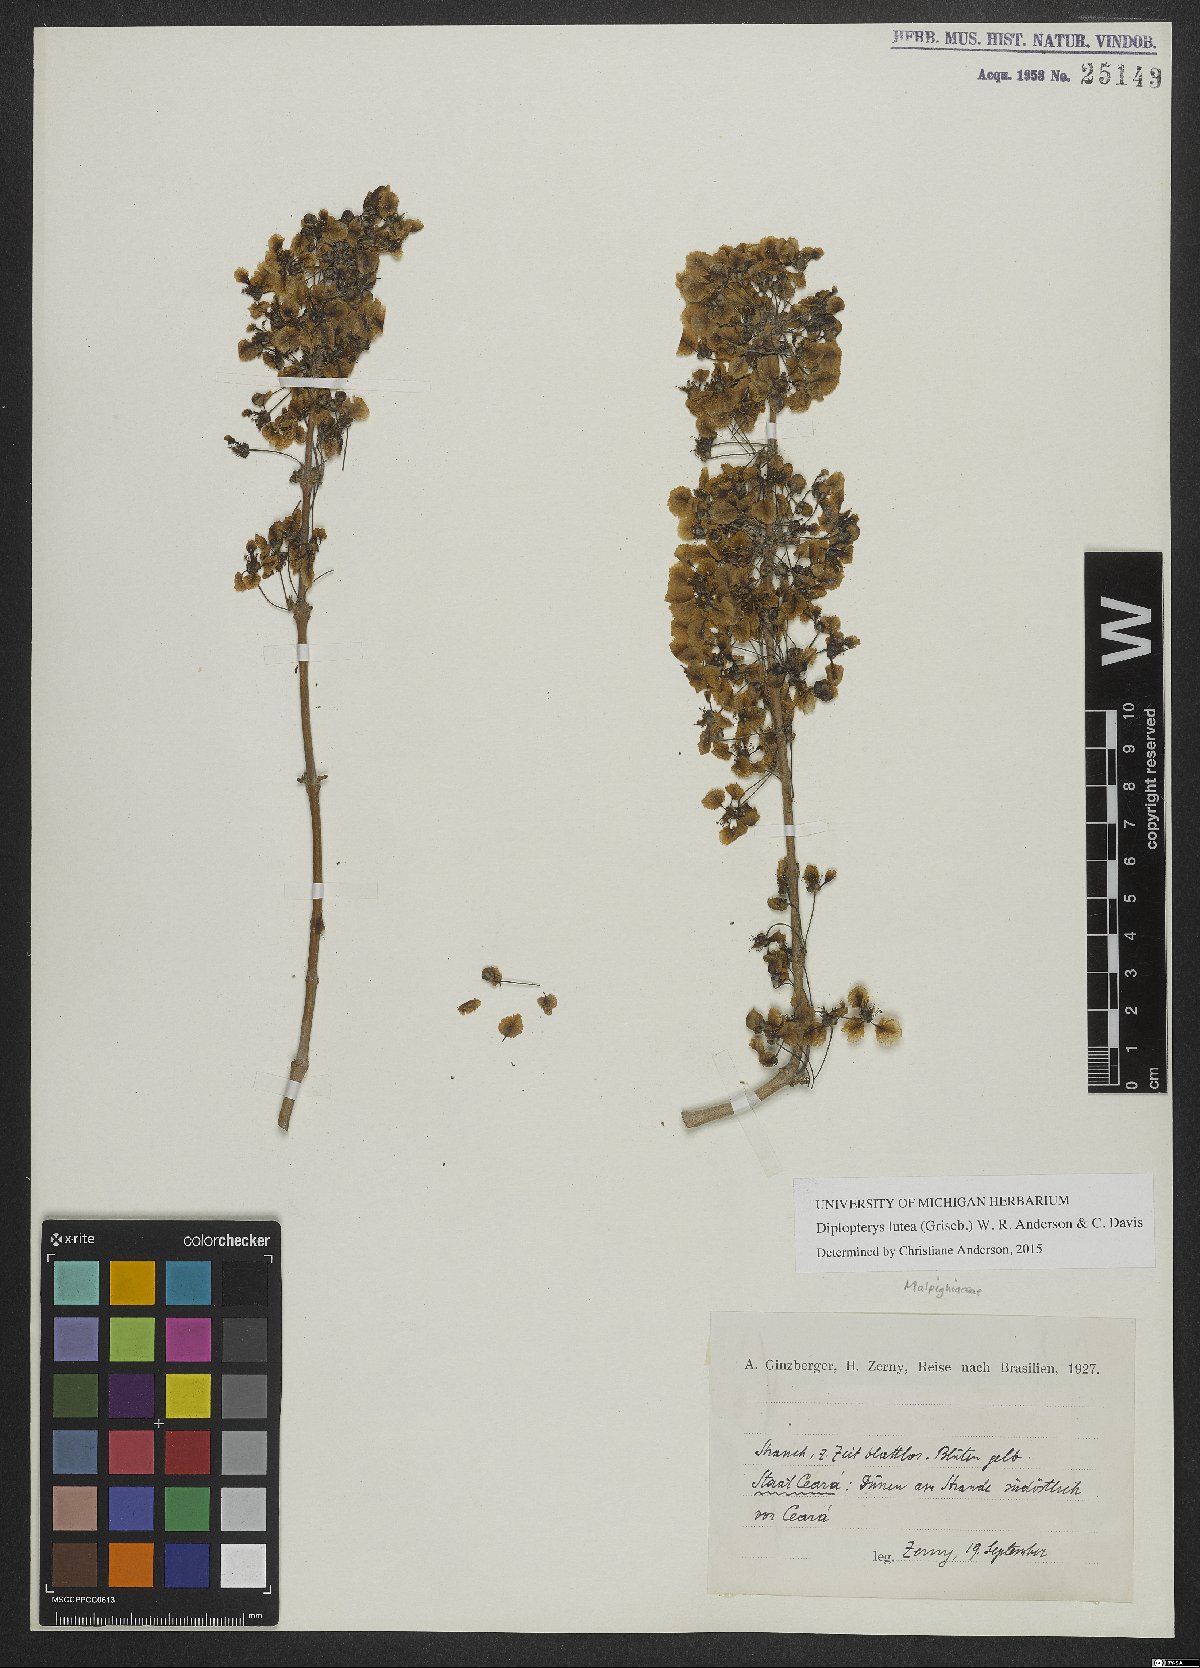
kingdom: Plantae
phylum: Tracheophyta
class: Magnoliopsida
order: Malpighiales
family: Malpighiaceae
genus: Diplopterys
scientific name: Diplopterys lutea
